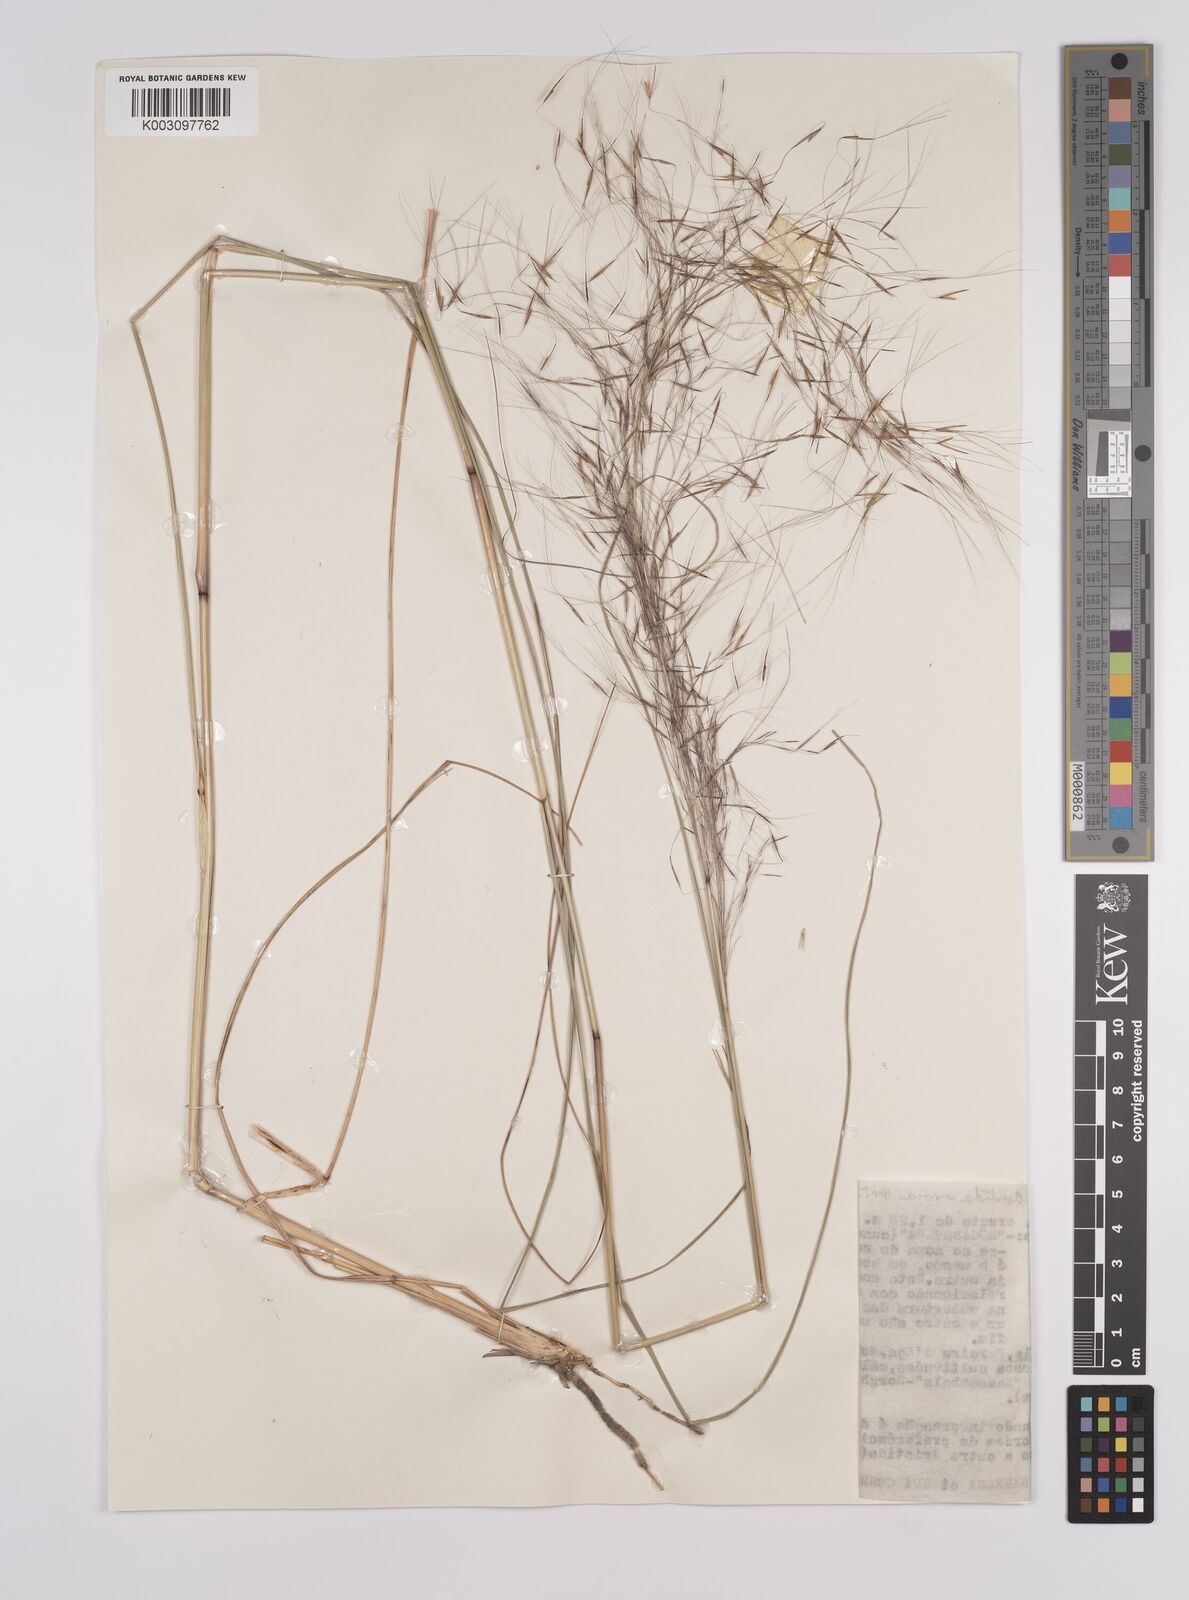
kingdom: Plantae
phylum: Tracheophyta
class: Liliopsida
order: Poales
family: Poaceae
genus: Aristida
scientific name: Aristida meridionalis
